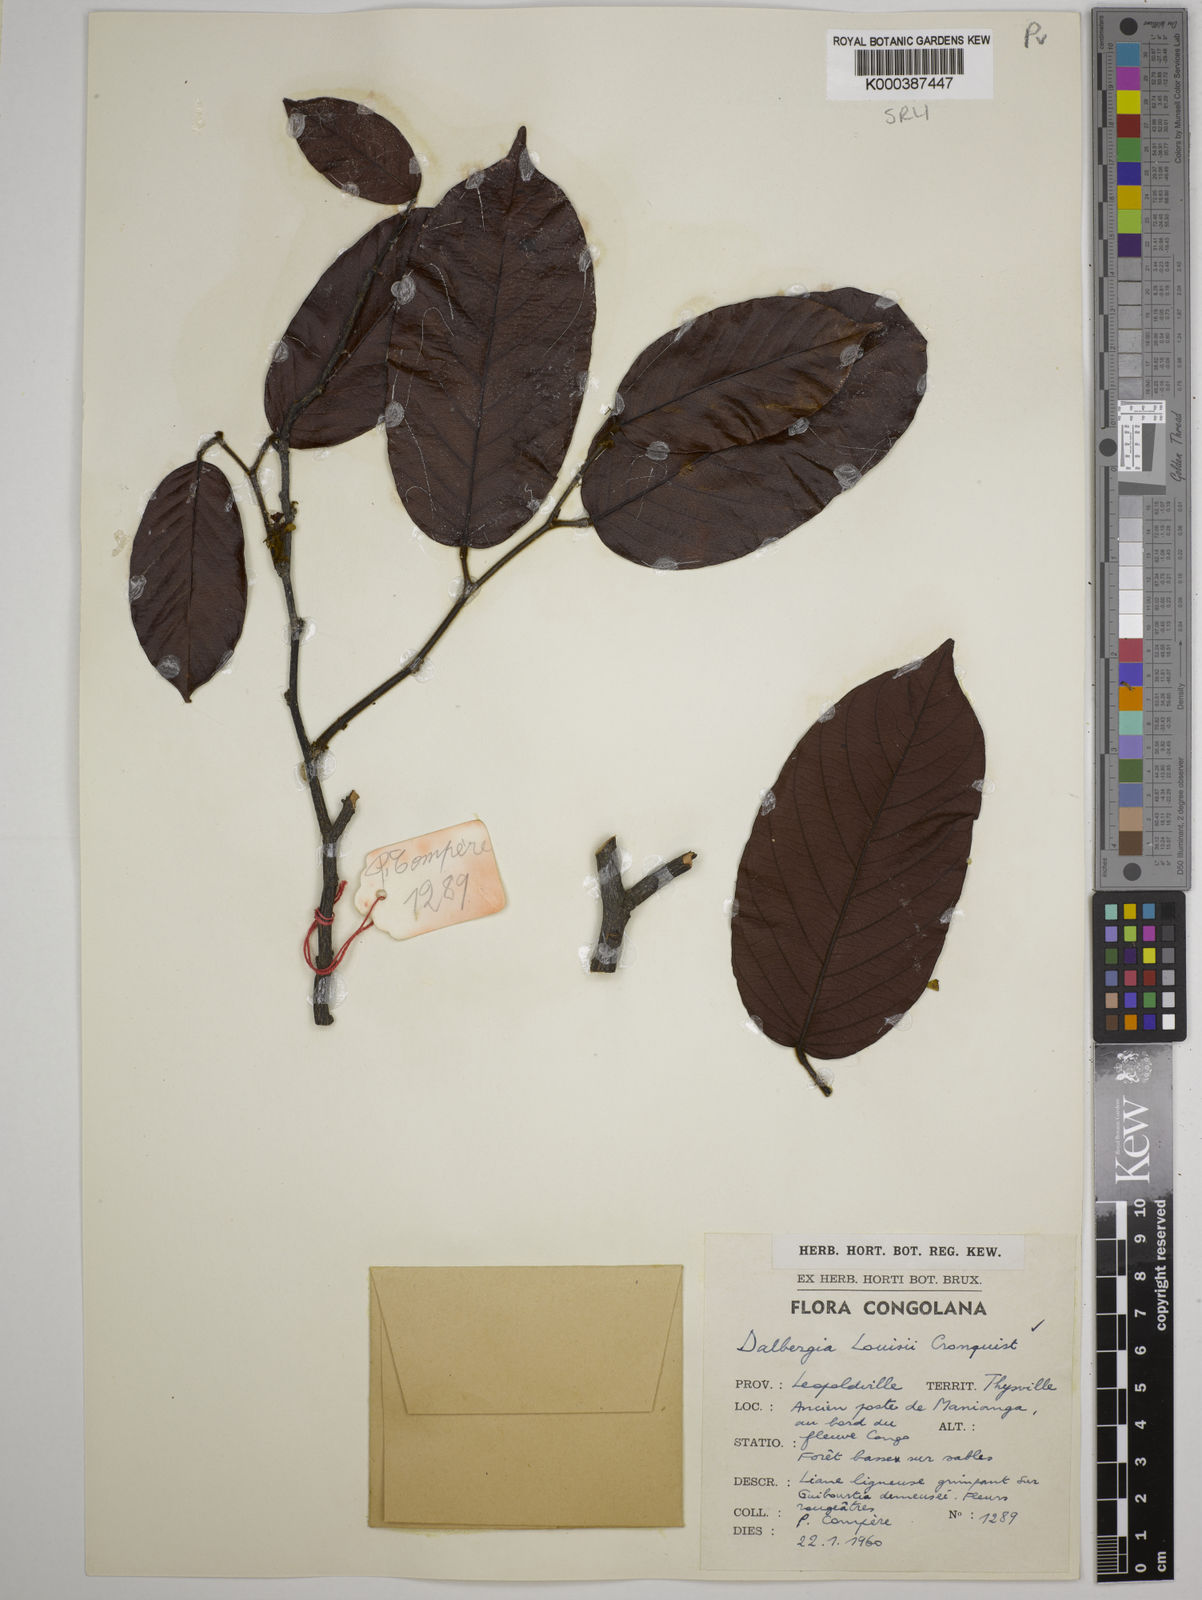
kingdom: Plantae
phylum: Tracheophyta
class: Magnoliopsida
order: Fabales
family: Fabaceae
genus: Dalbergia
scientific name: Dalbergia louisii
